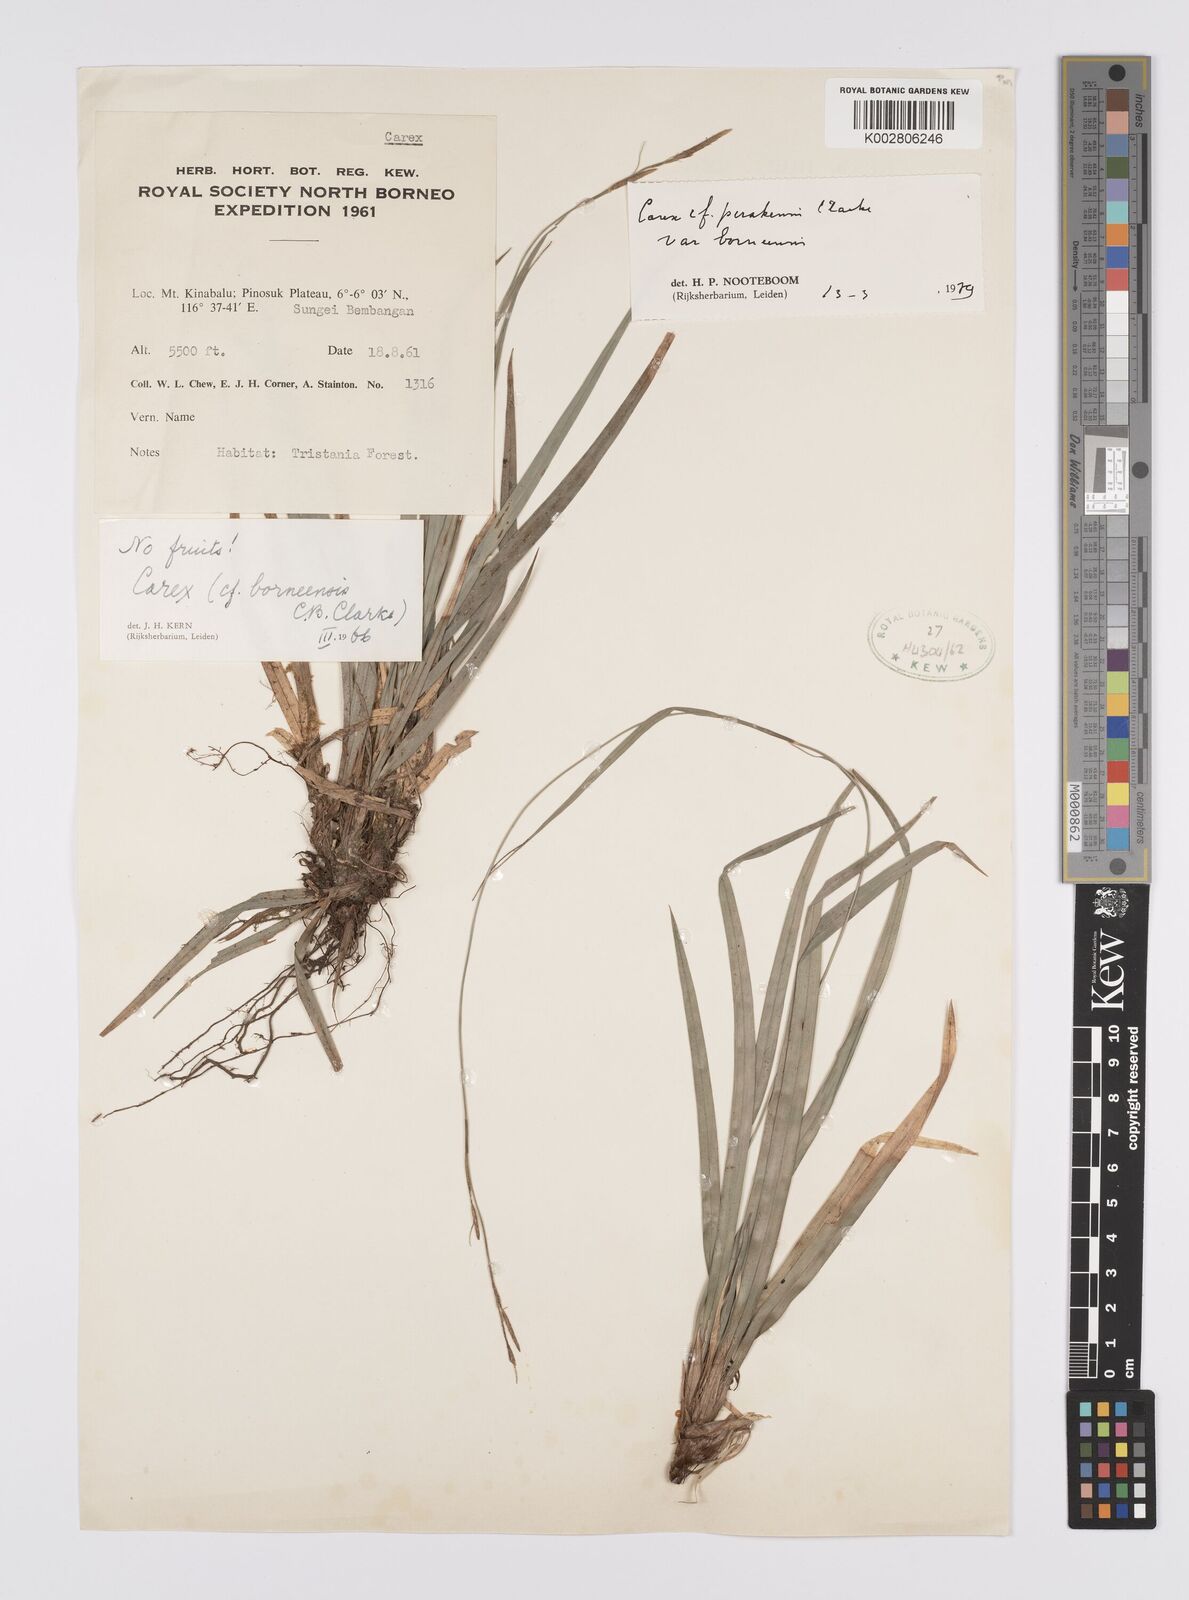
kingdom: Plantae
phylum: Tracheophyta
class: Liliopsida
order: Poales
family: Cyperaceae
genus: Carex
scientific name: Carex perakensis
